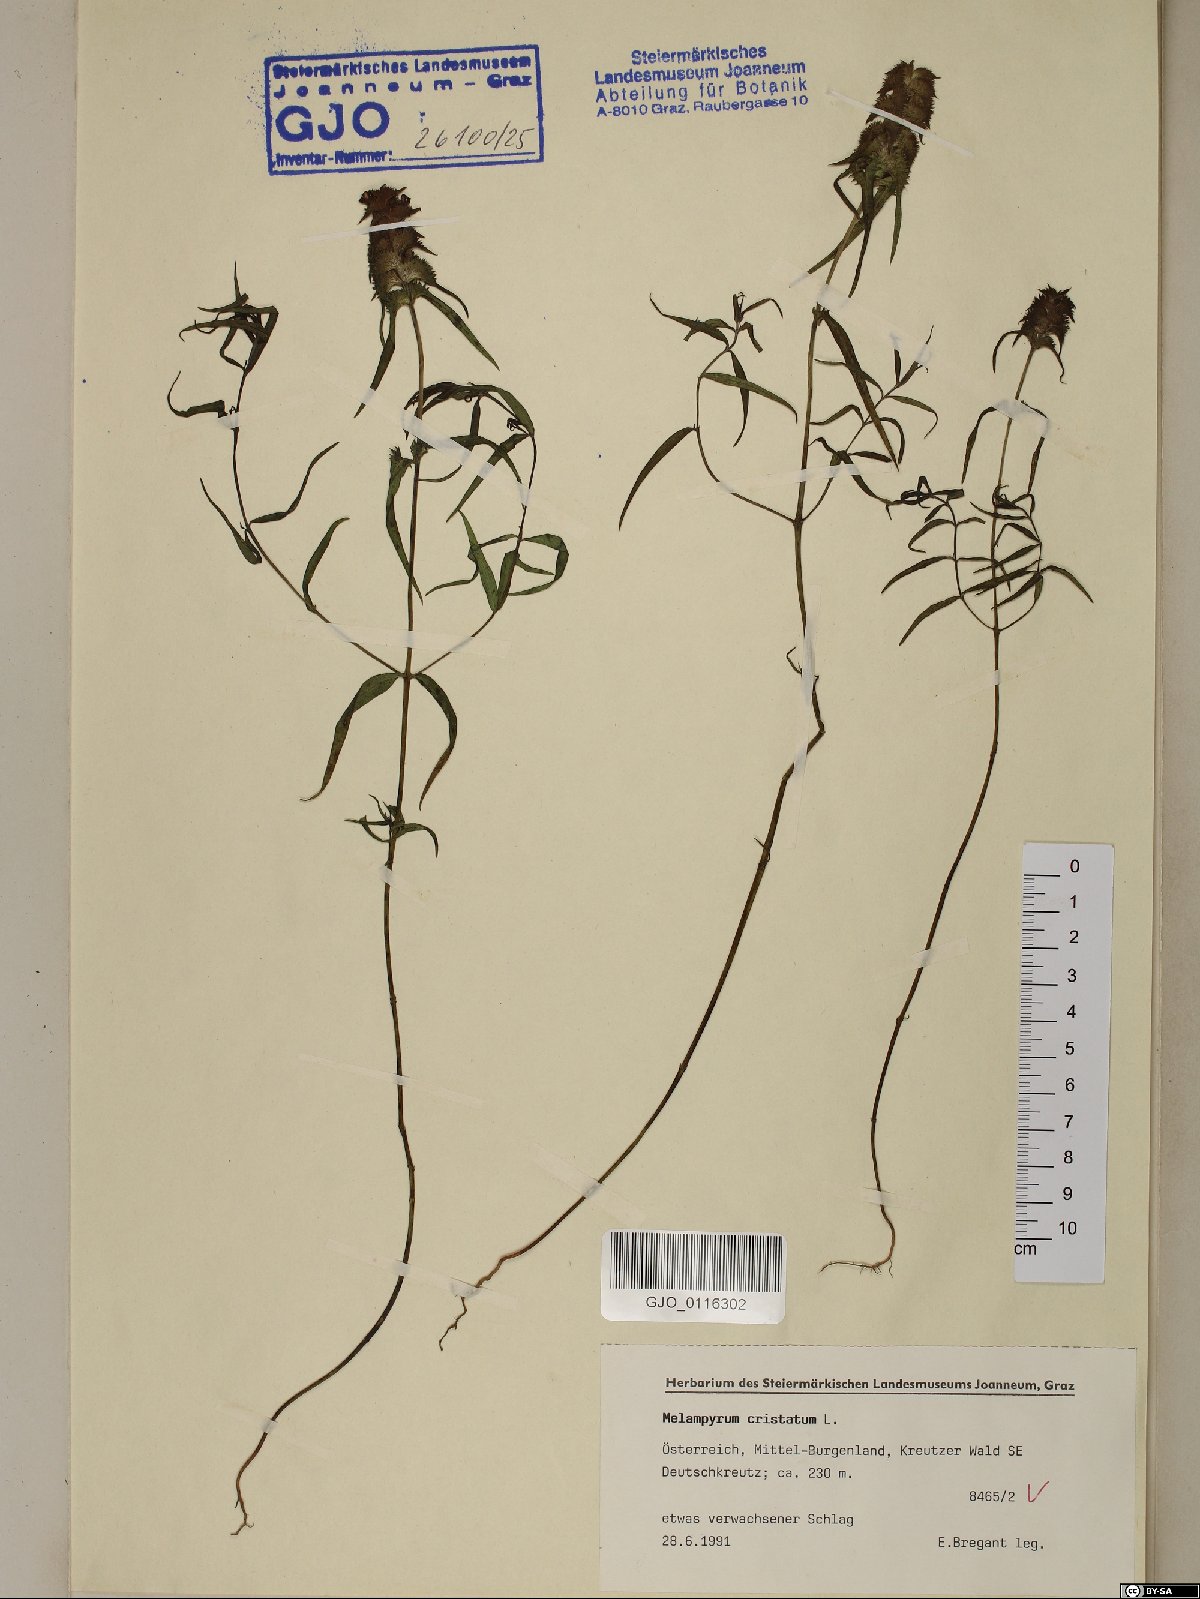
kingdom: Plantae
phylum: Tracheophyta
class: Magnoliopsida
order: Lamiales
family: Orobanchaceae
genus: Melampyrum
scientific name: Melampyrum cristatum
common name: Crested cow-wheat
